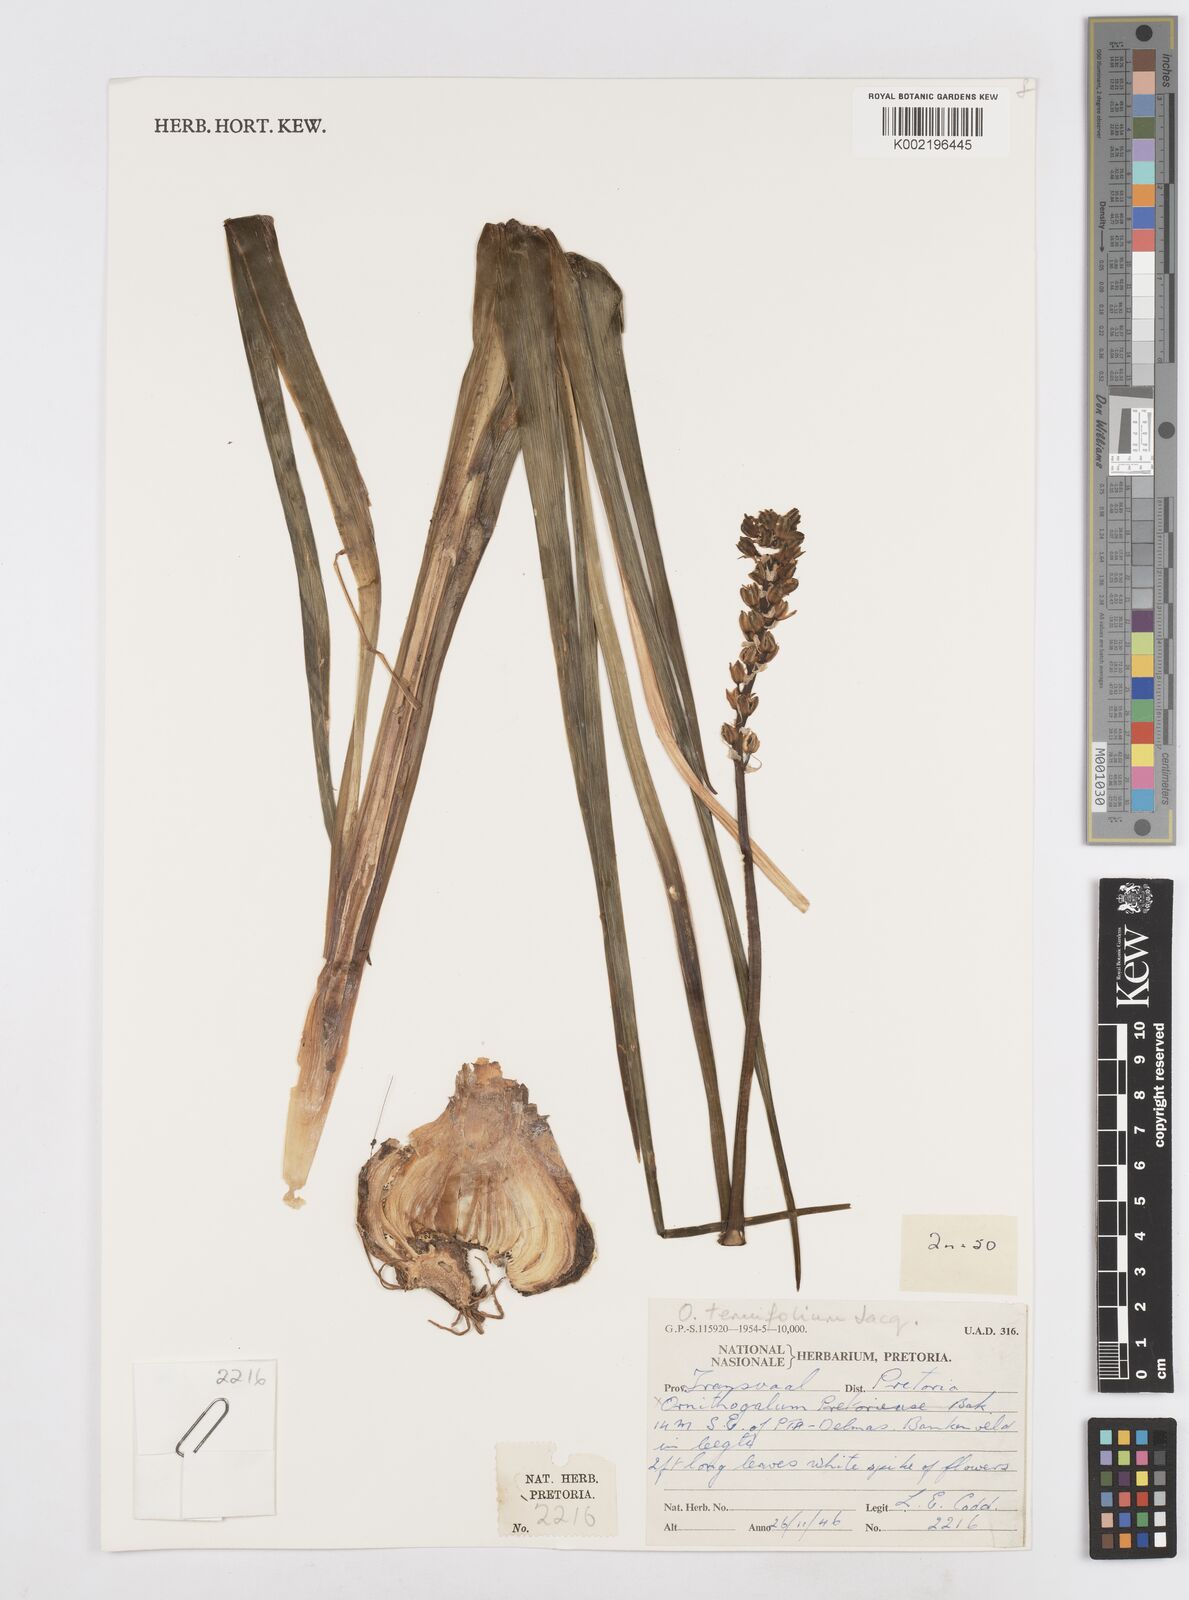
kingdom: Plantae
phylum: Tracheophyta
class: Liliopsida
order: Asparagales
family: Asparagaceae
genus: Albuca
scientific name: Albuca virens
